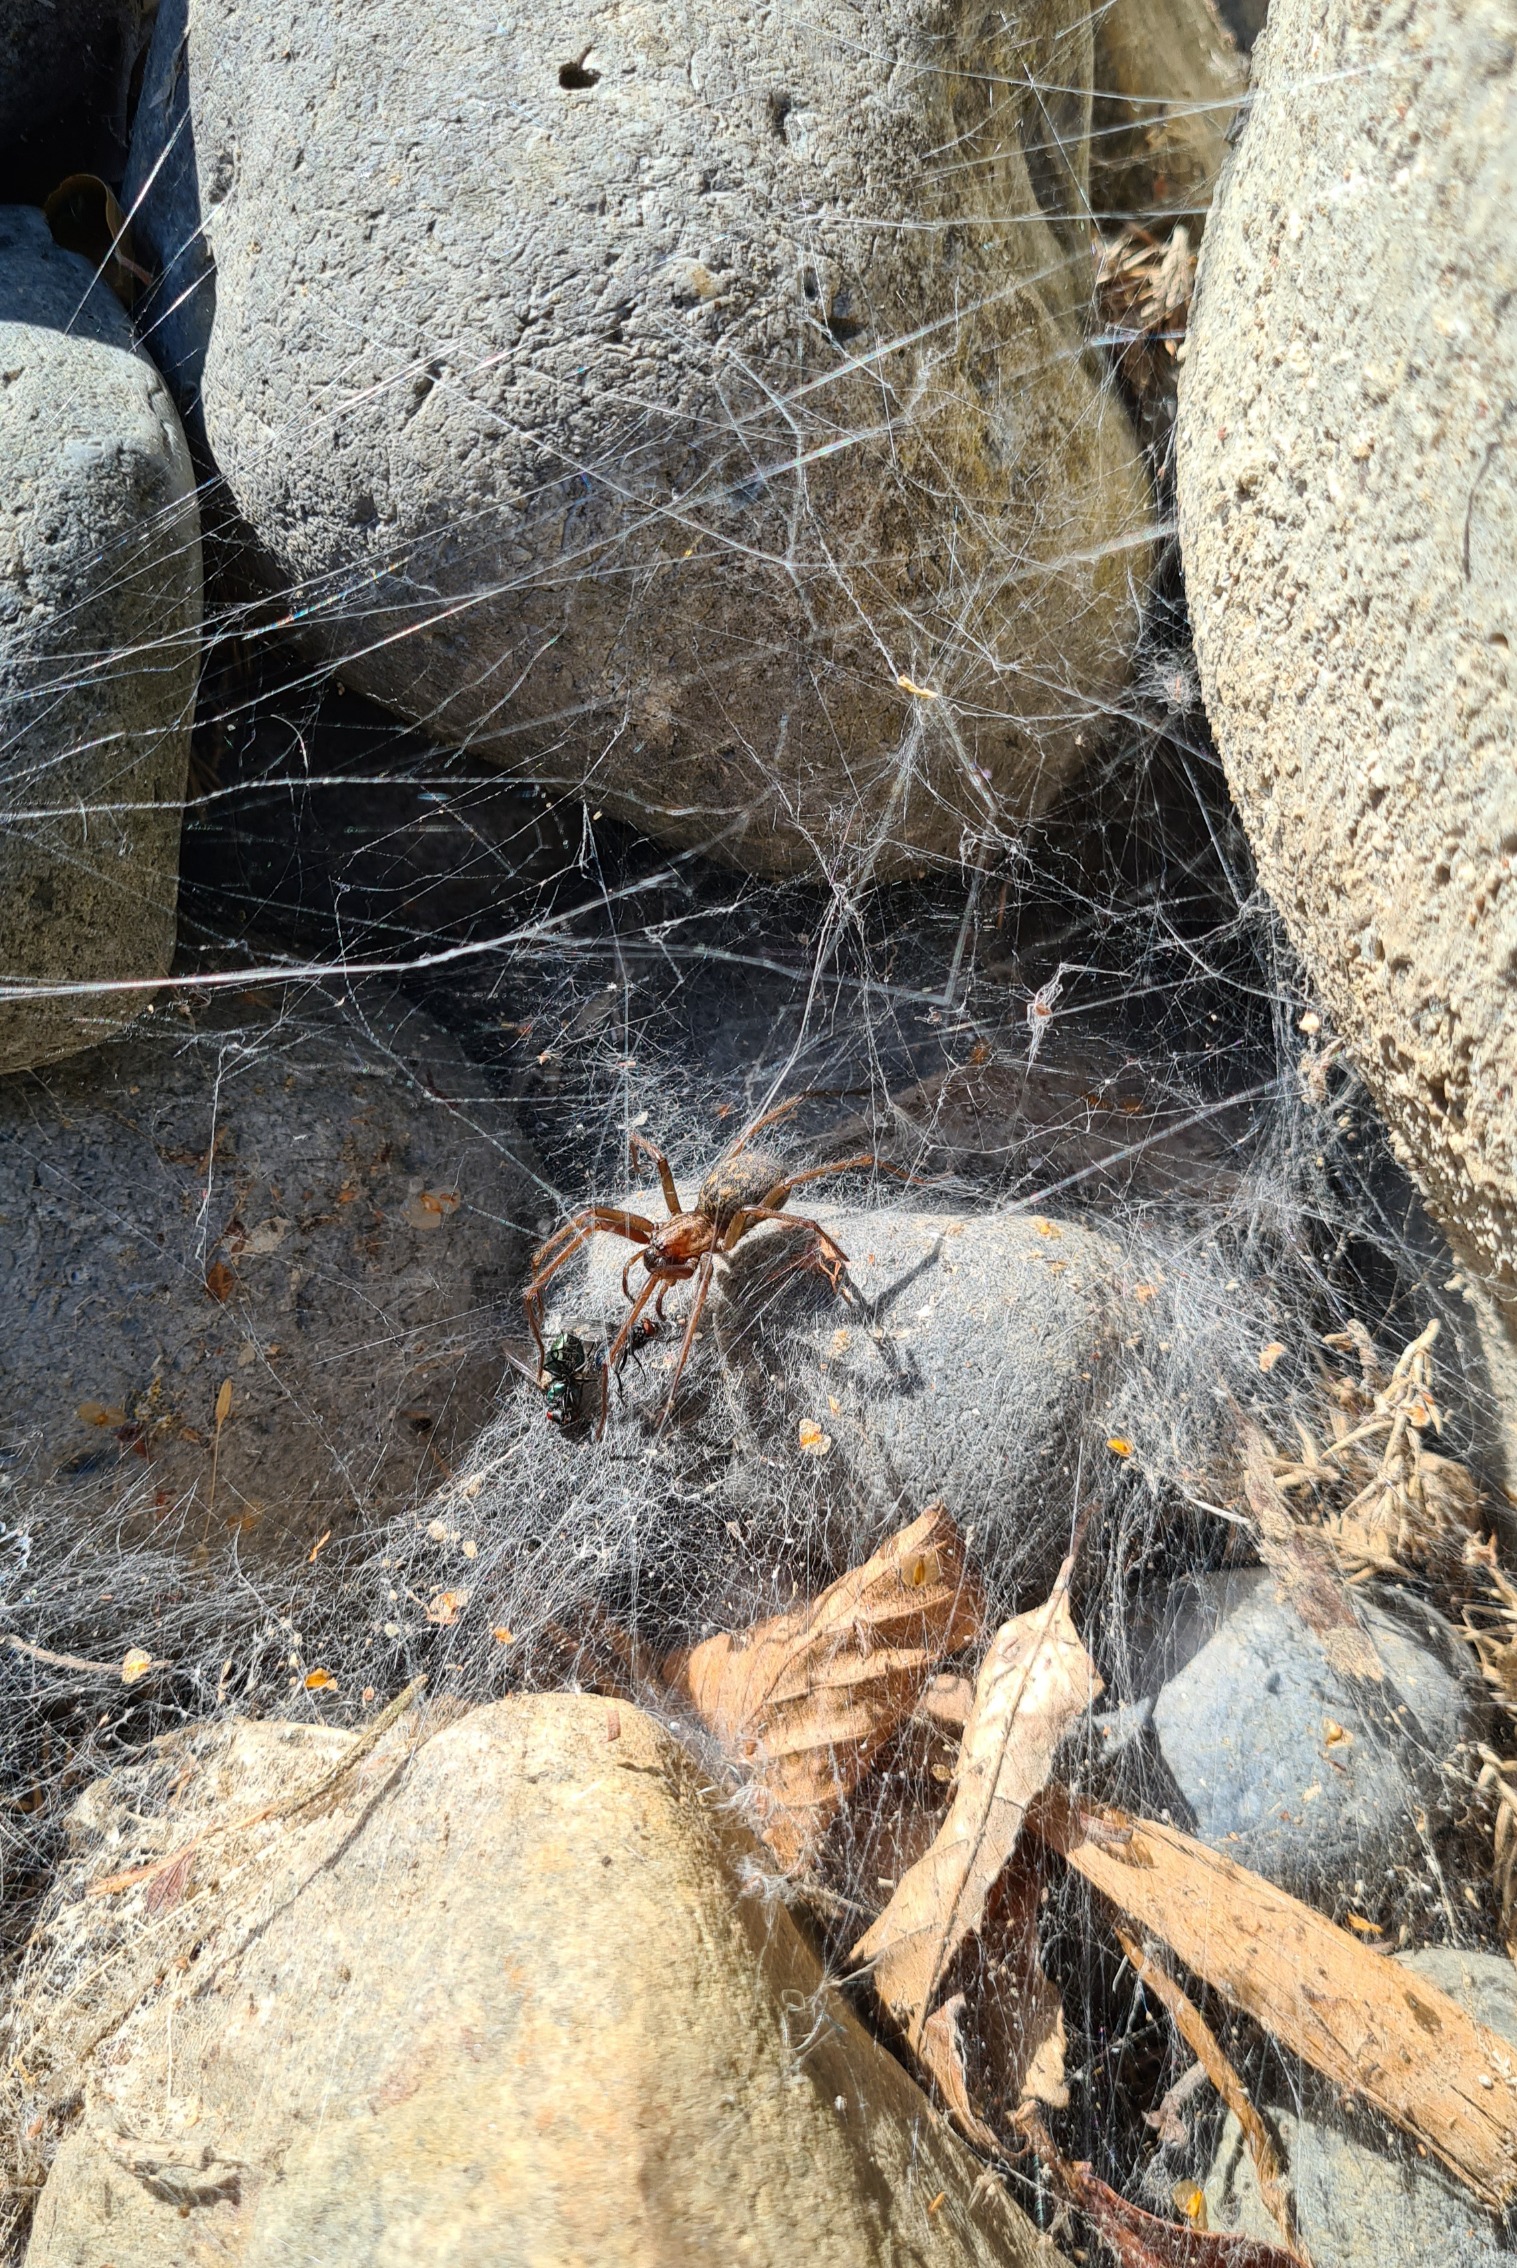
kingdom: Animalia
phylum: Arthropoda
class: Arachnida
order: Araneae
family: Agelenidae
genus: Eratigena
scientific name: Eratigena atrica
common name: Stor husedderkop
